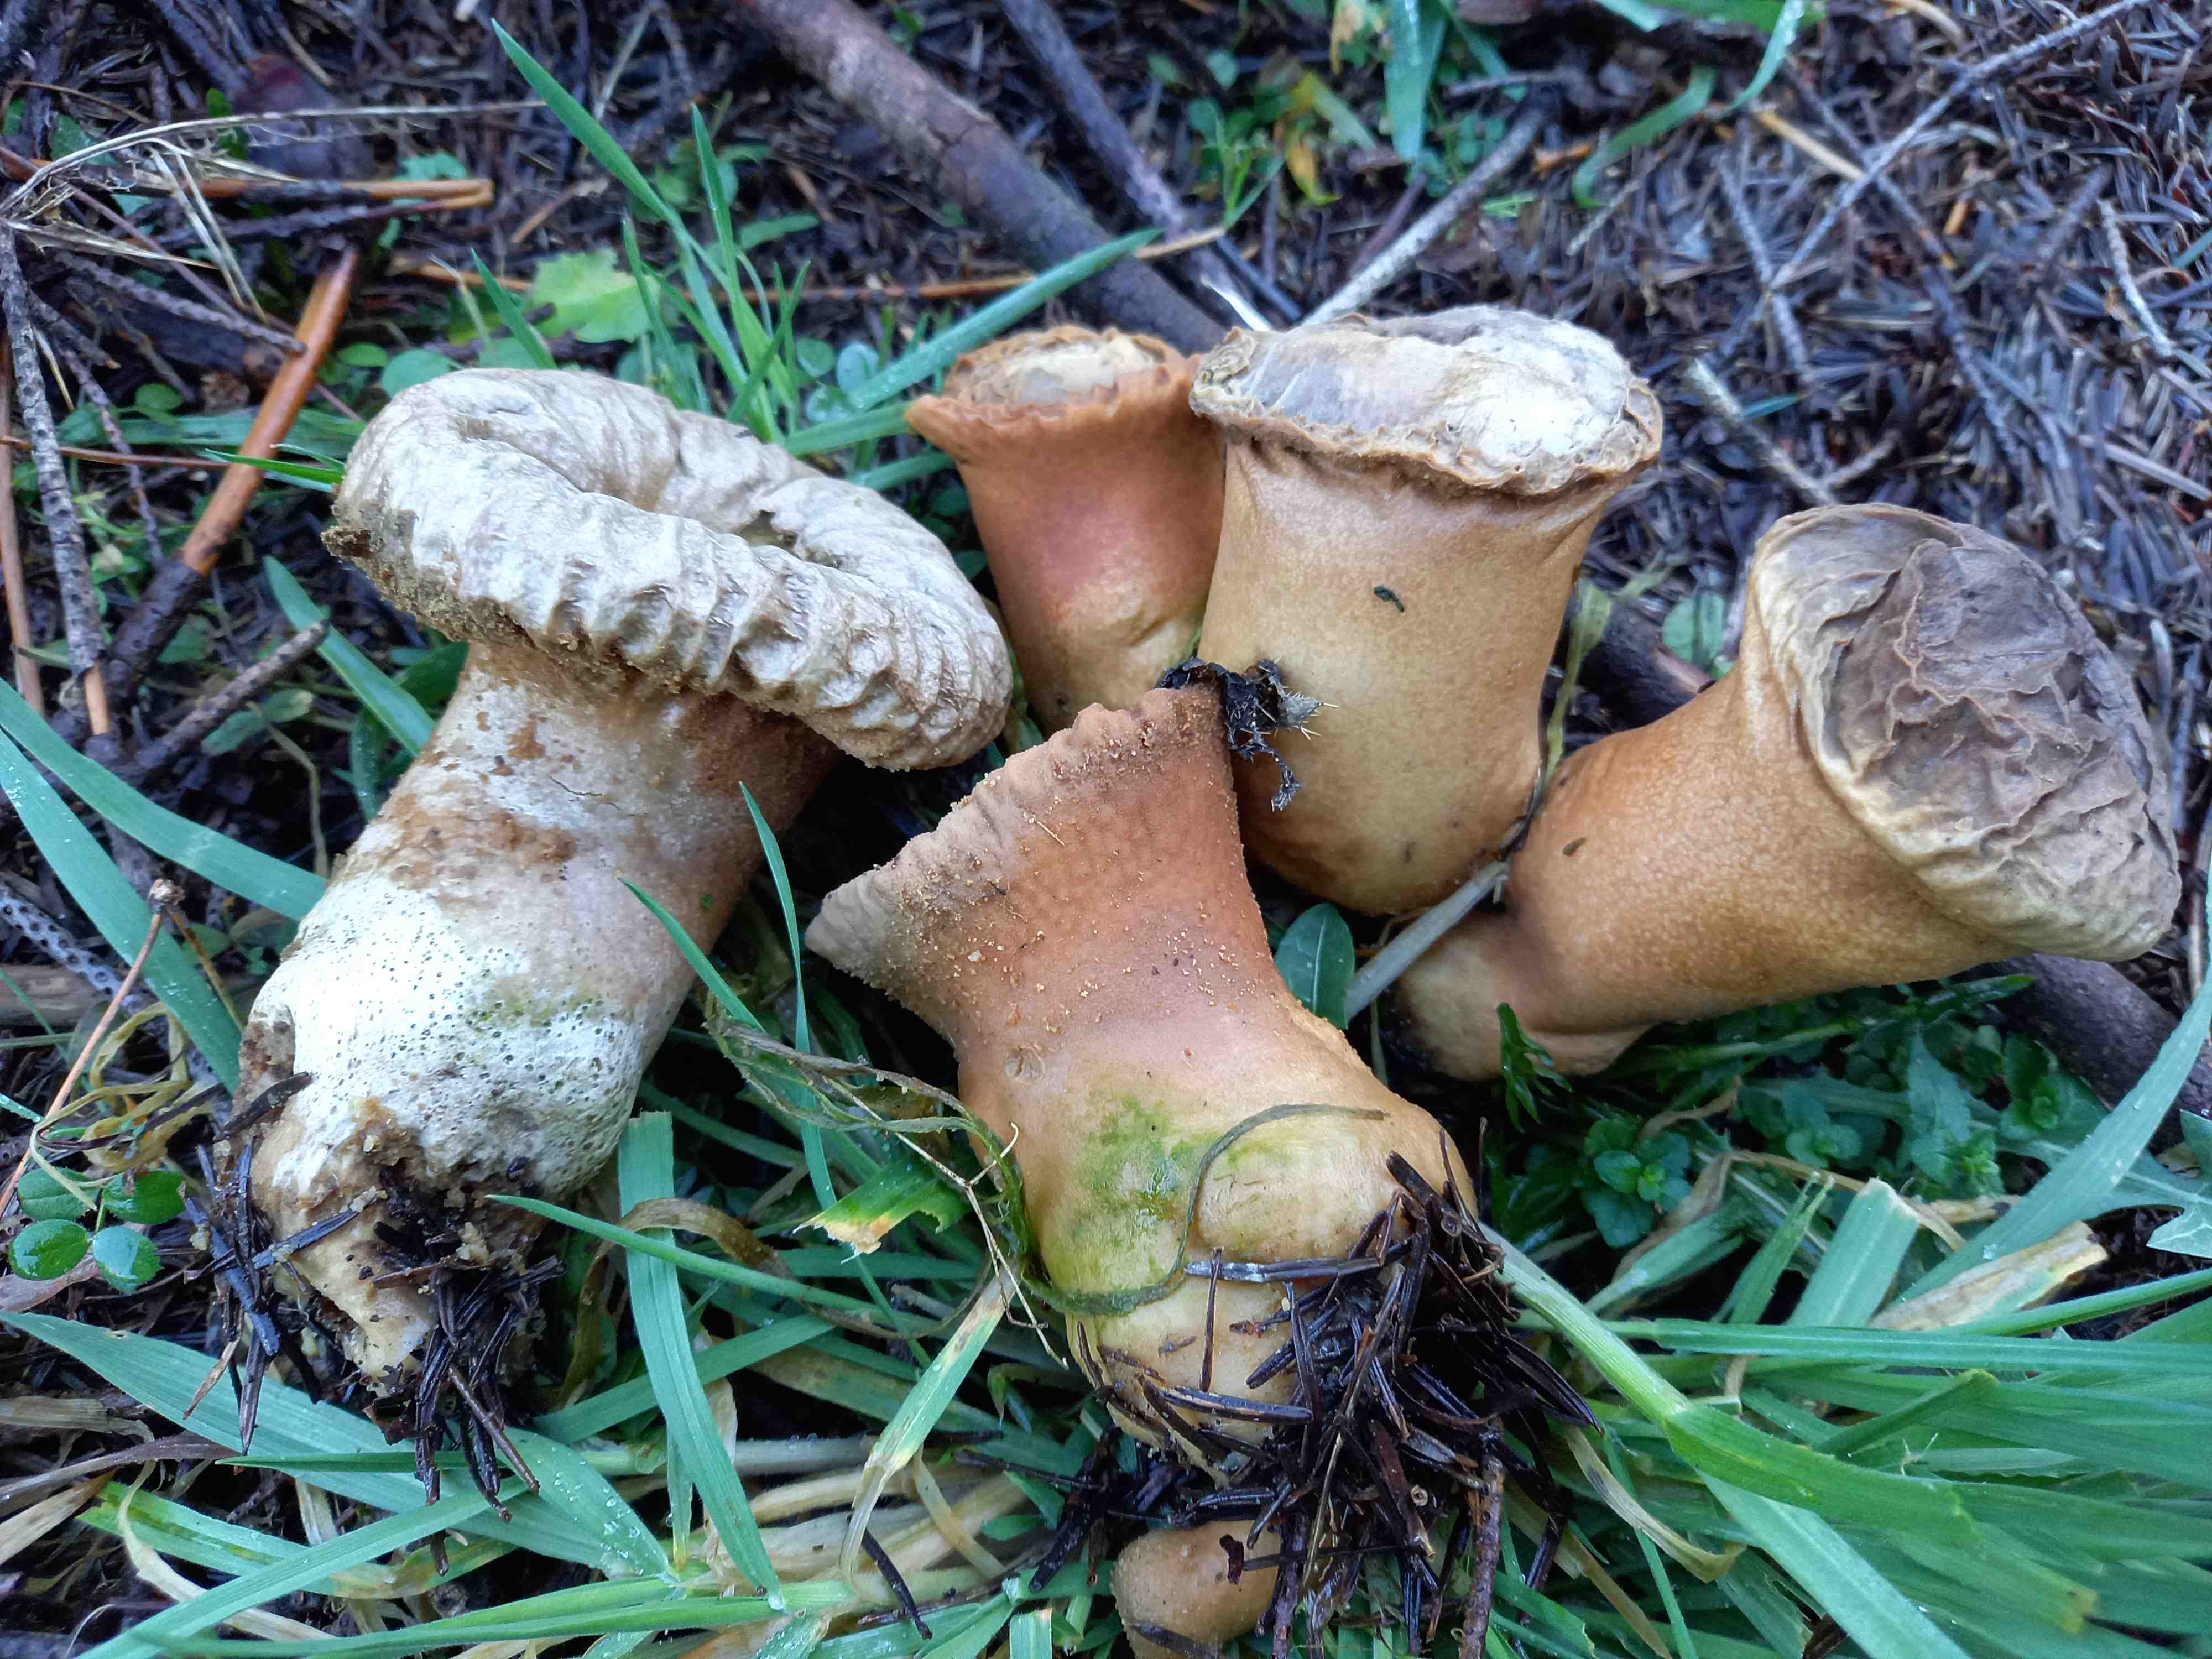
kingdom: Fungi
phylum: Basidiomycota
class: Agaricomycetes
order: Agaricales
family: Lycoperdaceae
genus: Lycoperdon
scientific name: Lycoperdon excipuliforme
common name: højstokket støvbold
